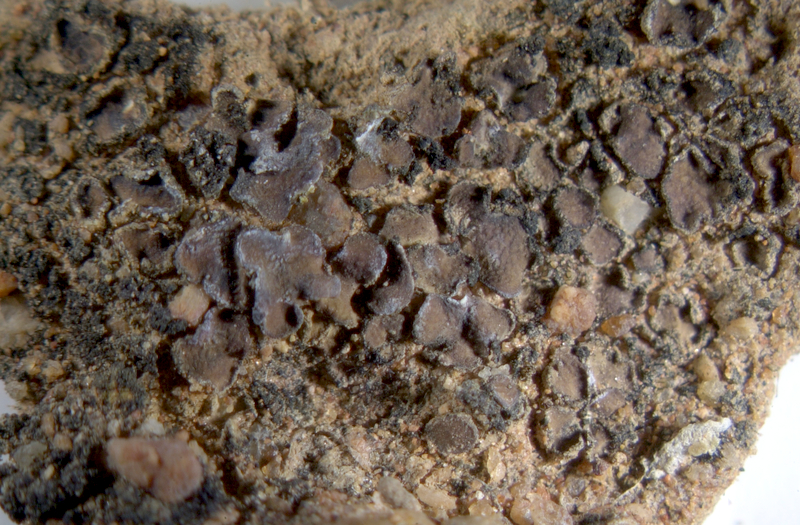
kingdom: Fungi
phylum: Ascomycota
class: Eurotiomycetes
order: Verrucariales
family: Verrucariaceae
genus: Clavascidium
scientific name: Clavascidium semaforonense
